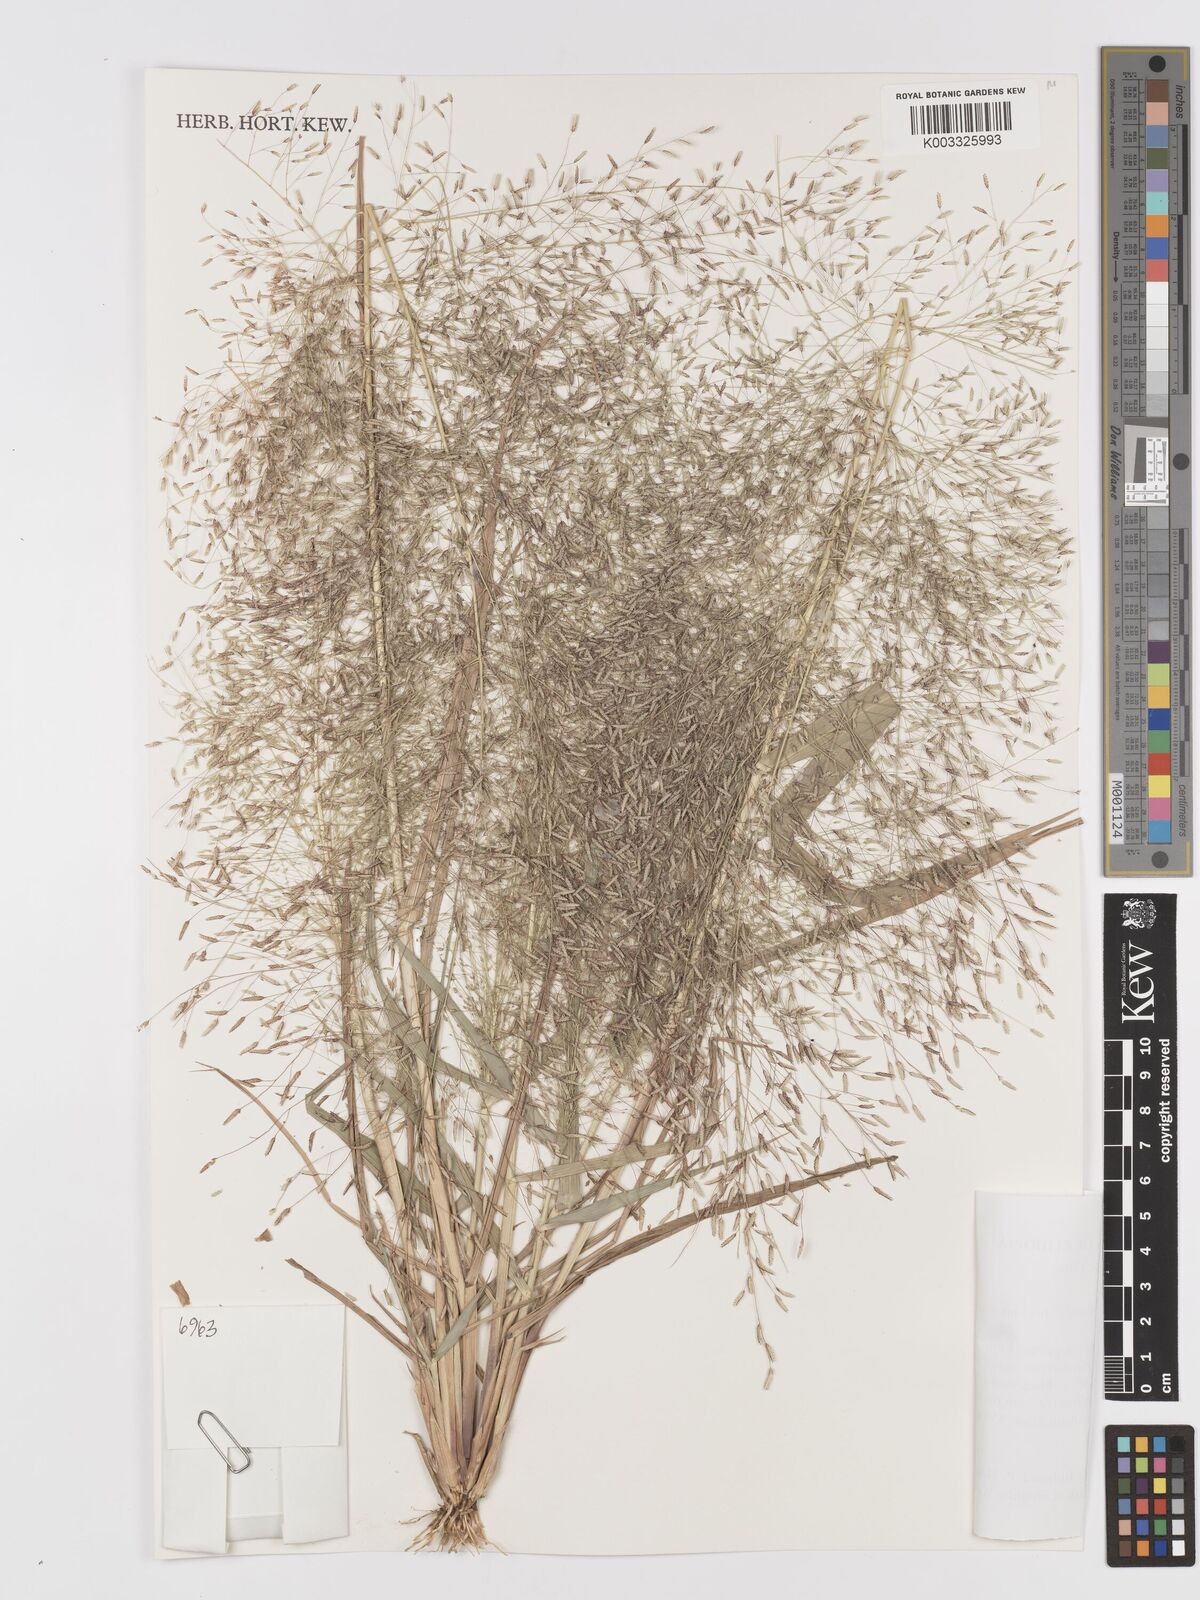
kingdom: Plantae
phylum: Tracheophyta
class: Liliopsida
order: Poales
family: Poaceae
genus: Eragrostis
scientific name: Eragrostis aspera
